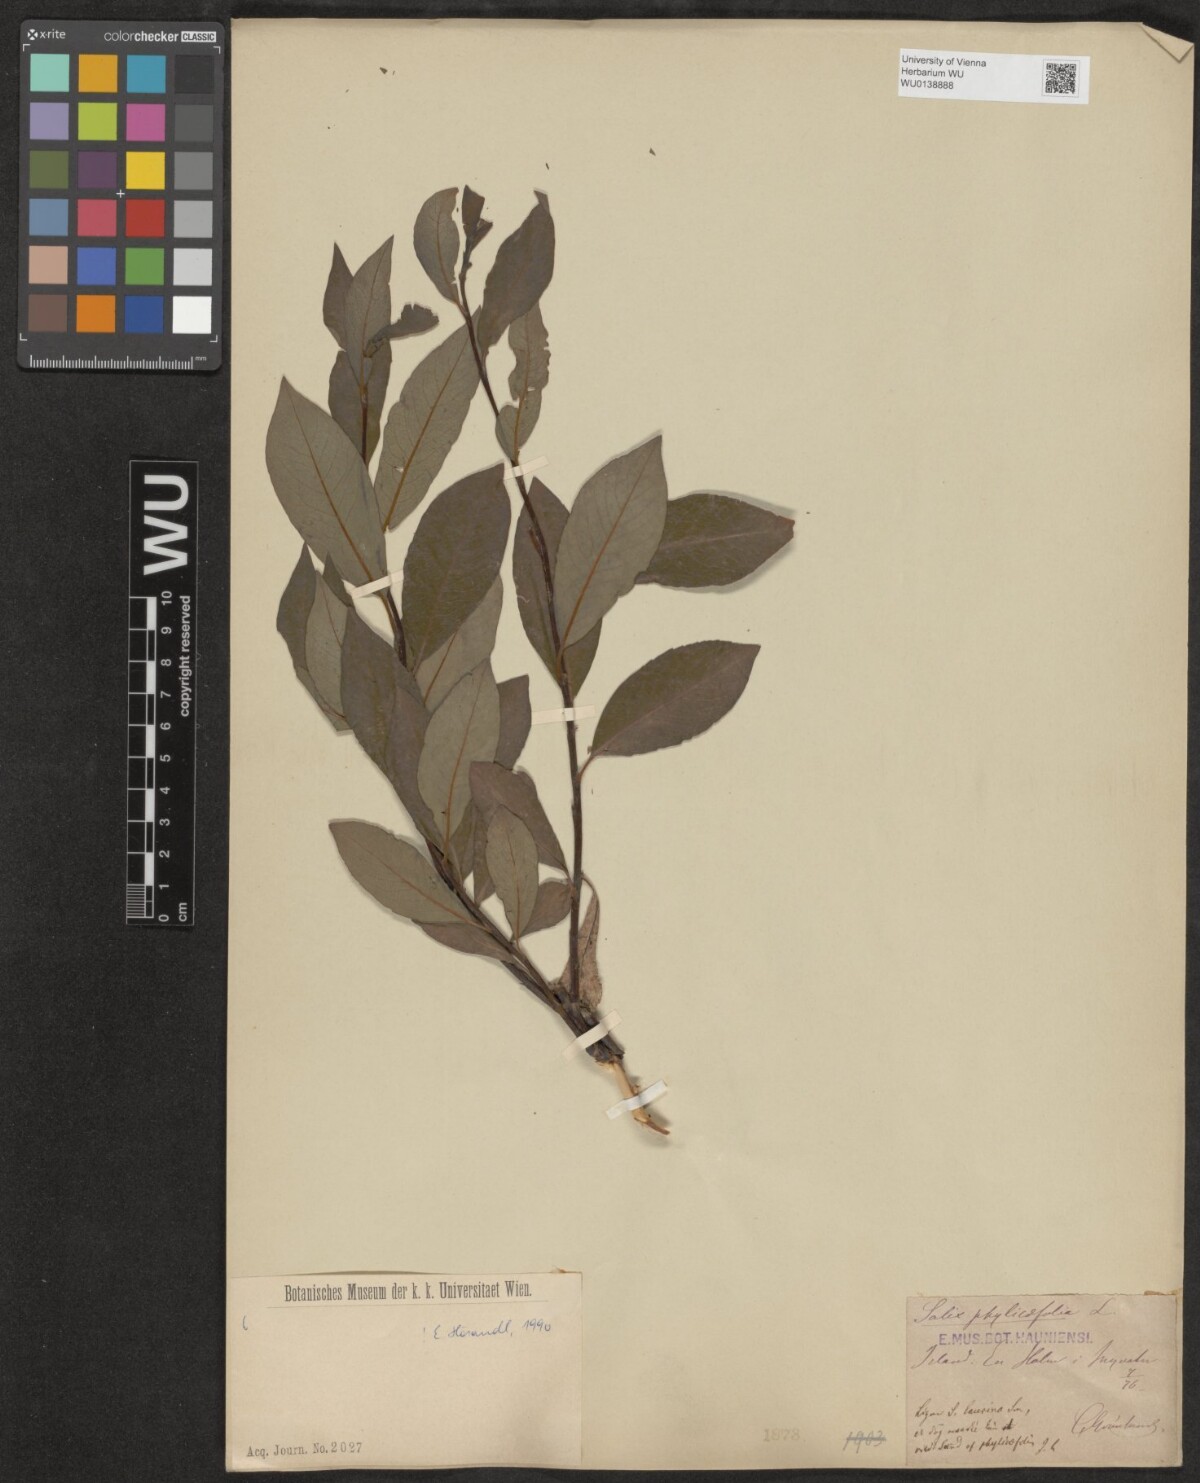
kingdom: Plantae
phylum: Tracheophyta
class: Magnoliopsida
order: Malpighiales
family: Salicaceae
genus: Salix
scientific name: Salix phylicifolia
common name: Tea-leaved willow
